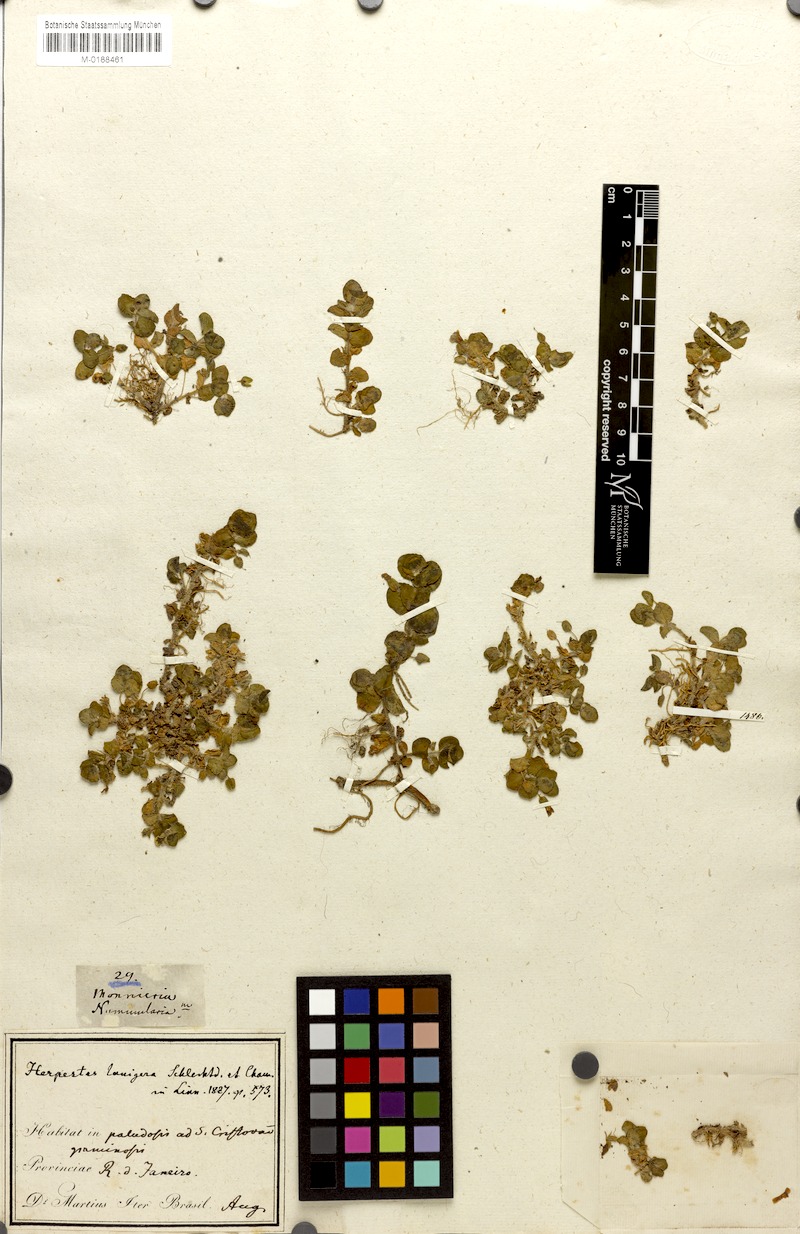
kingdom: Plantae
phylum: Tracheophyta
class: Magnoliopsida
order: Lamiales
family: Plantaginaceae
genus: Bacopa
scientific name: Bacopa lanigera
